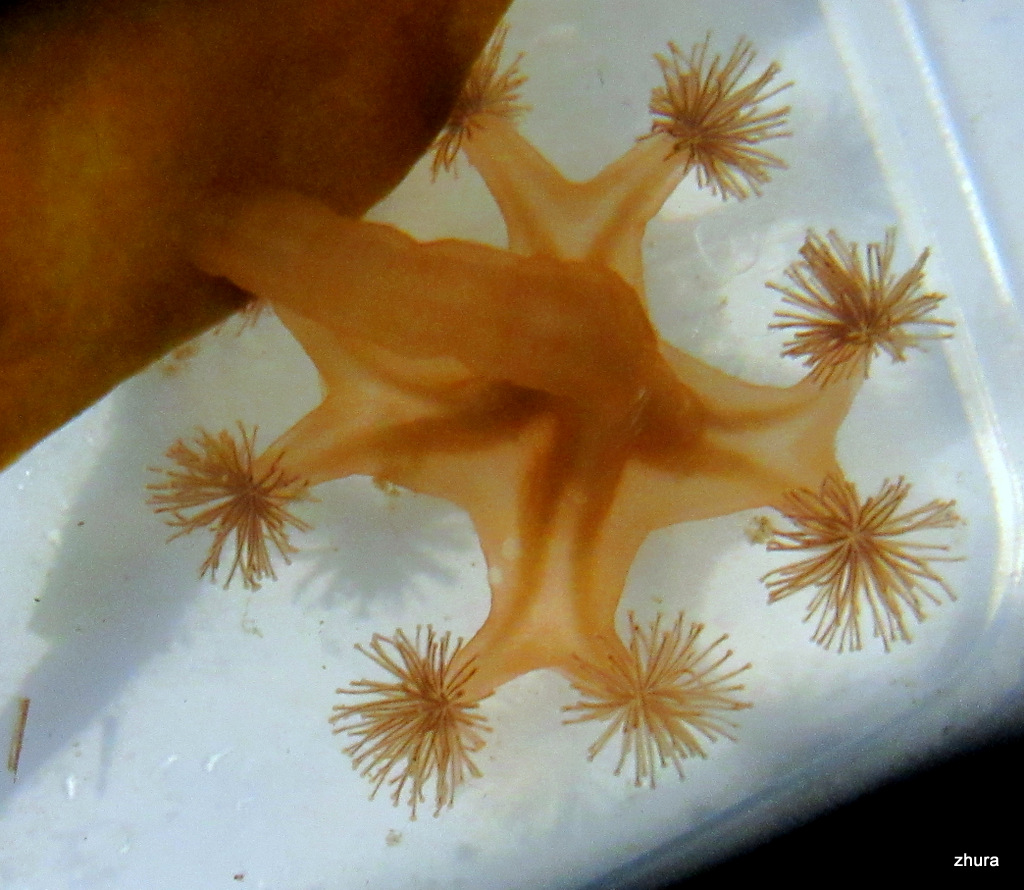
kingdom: Animalia
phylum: Cnidaria
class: Staurozoa
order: Stauromedusae
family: Lucernariidae
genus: Lucernaria
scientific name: Lucernaria quadricornis
